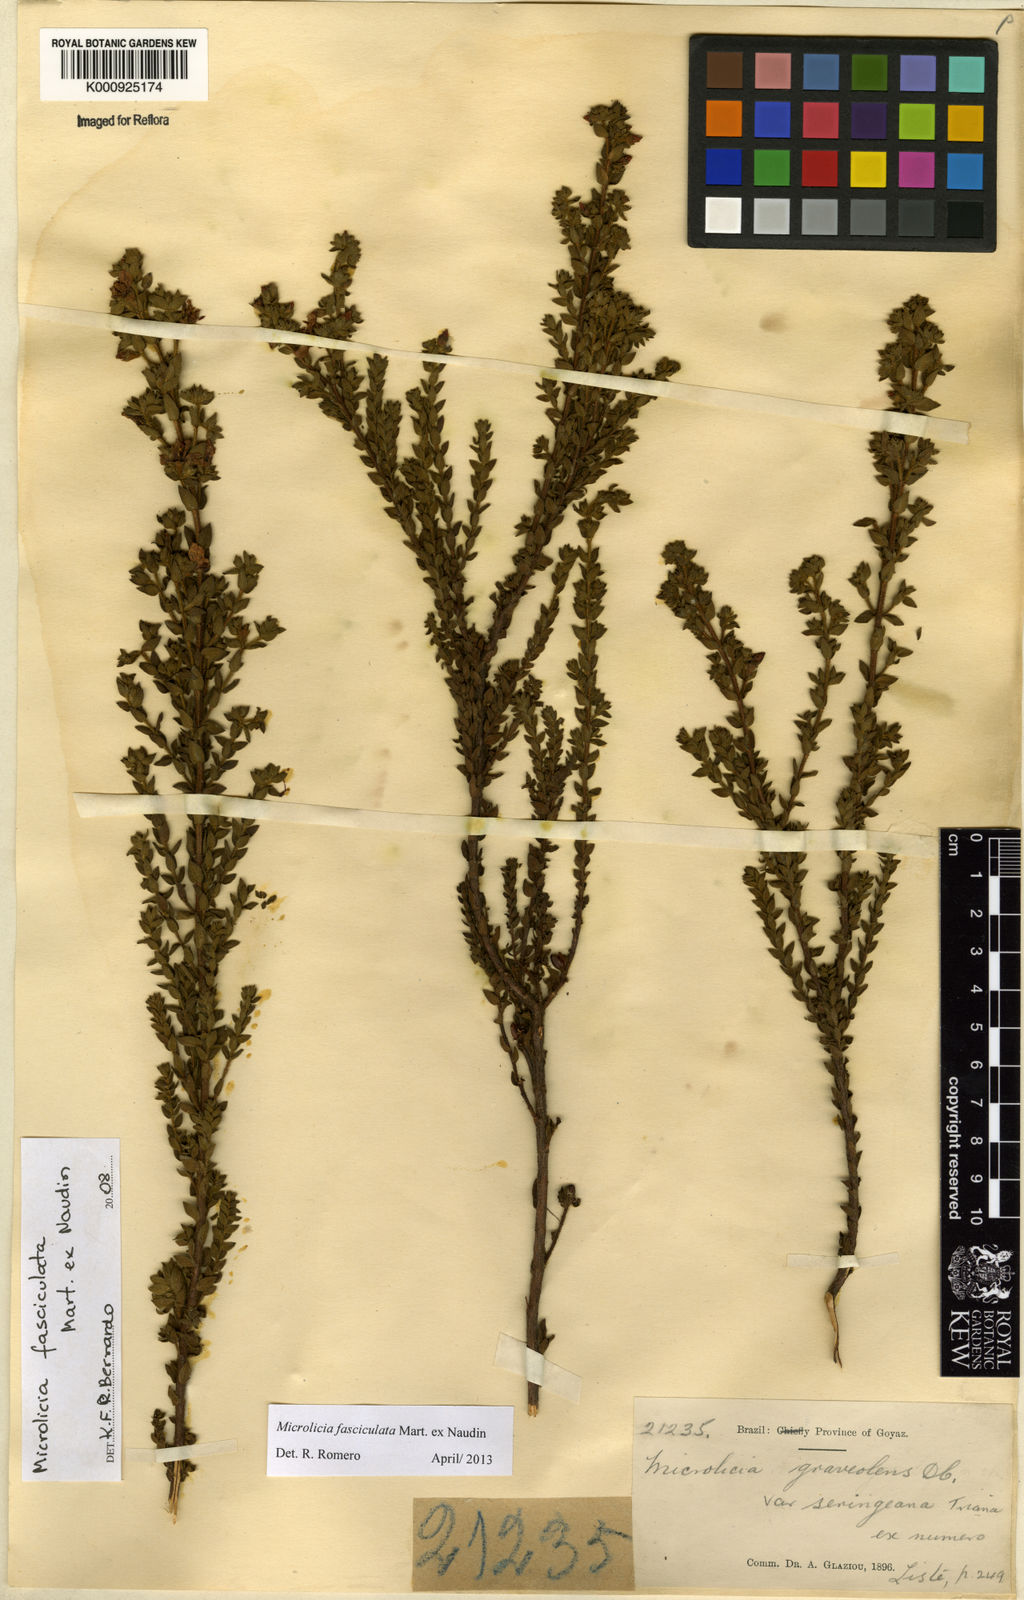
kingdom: Plantae
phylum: Tracheophyta
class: Magnoliopsida
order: Myrtales
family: Melastomataceae
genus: Microlicia
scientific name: Microlicia fasciculata
